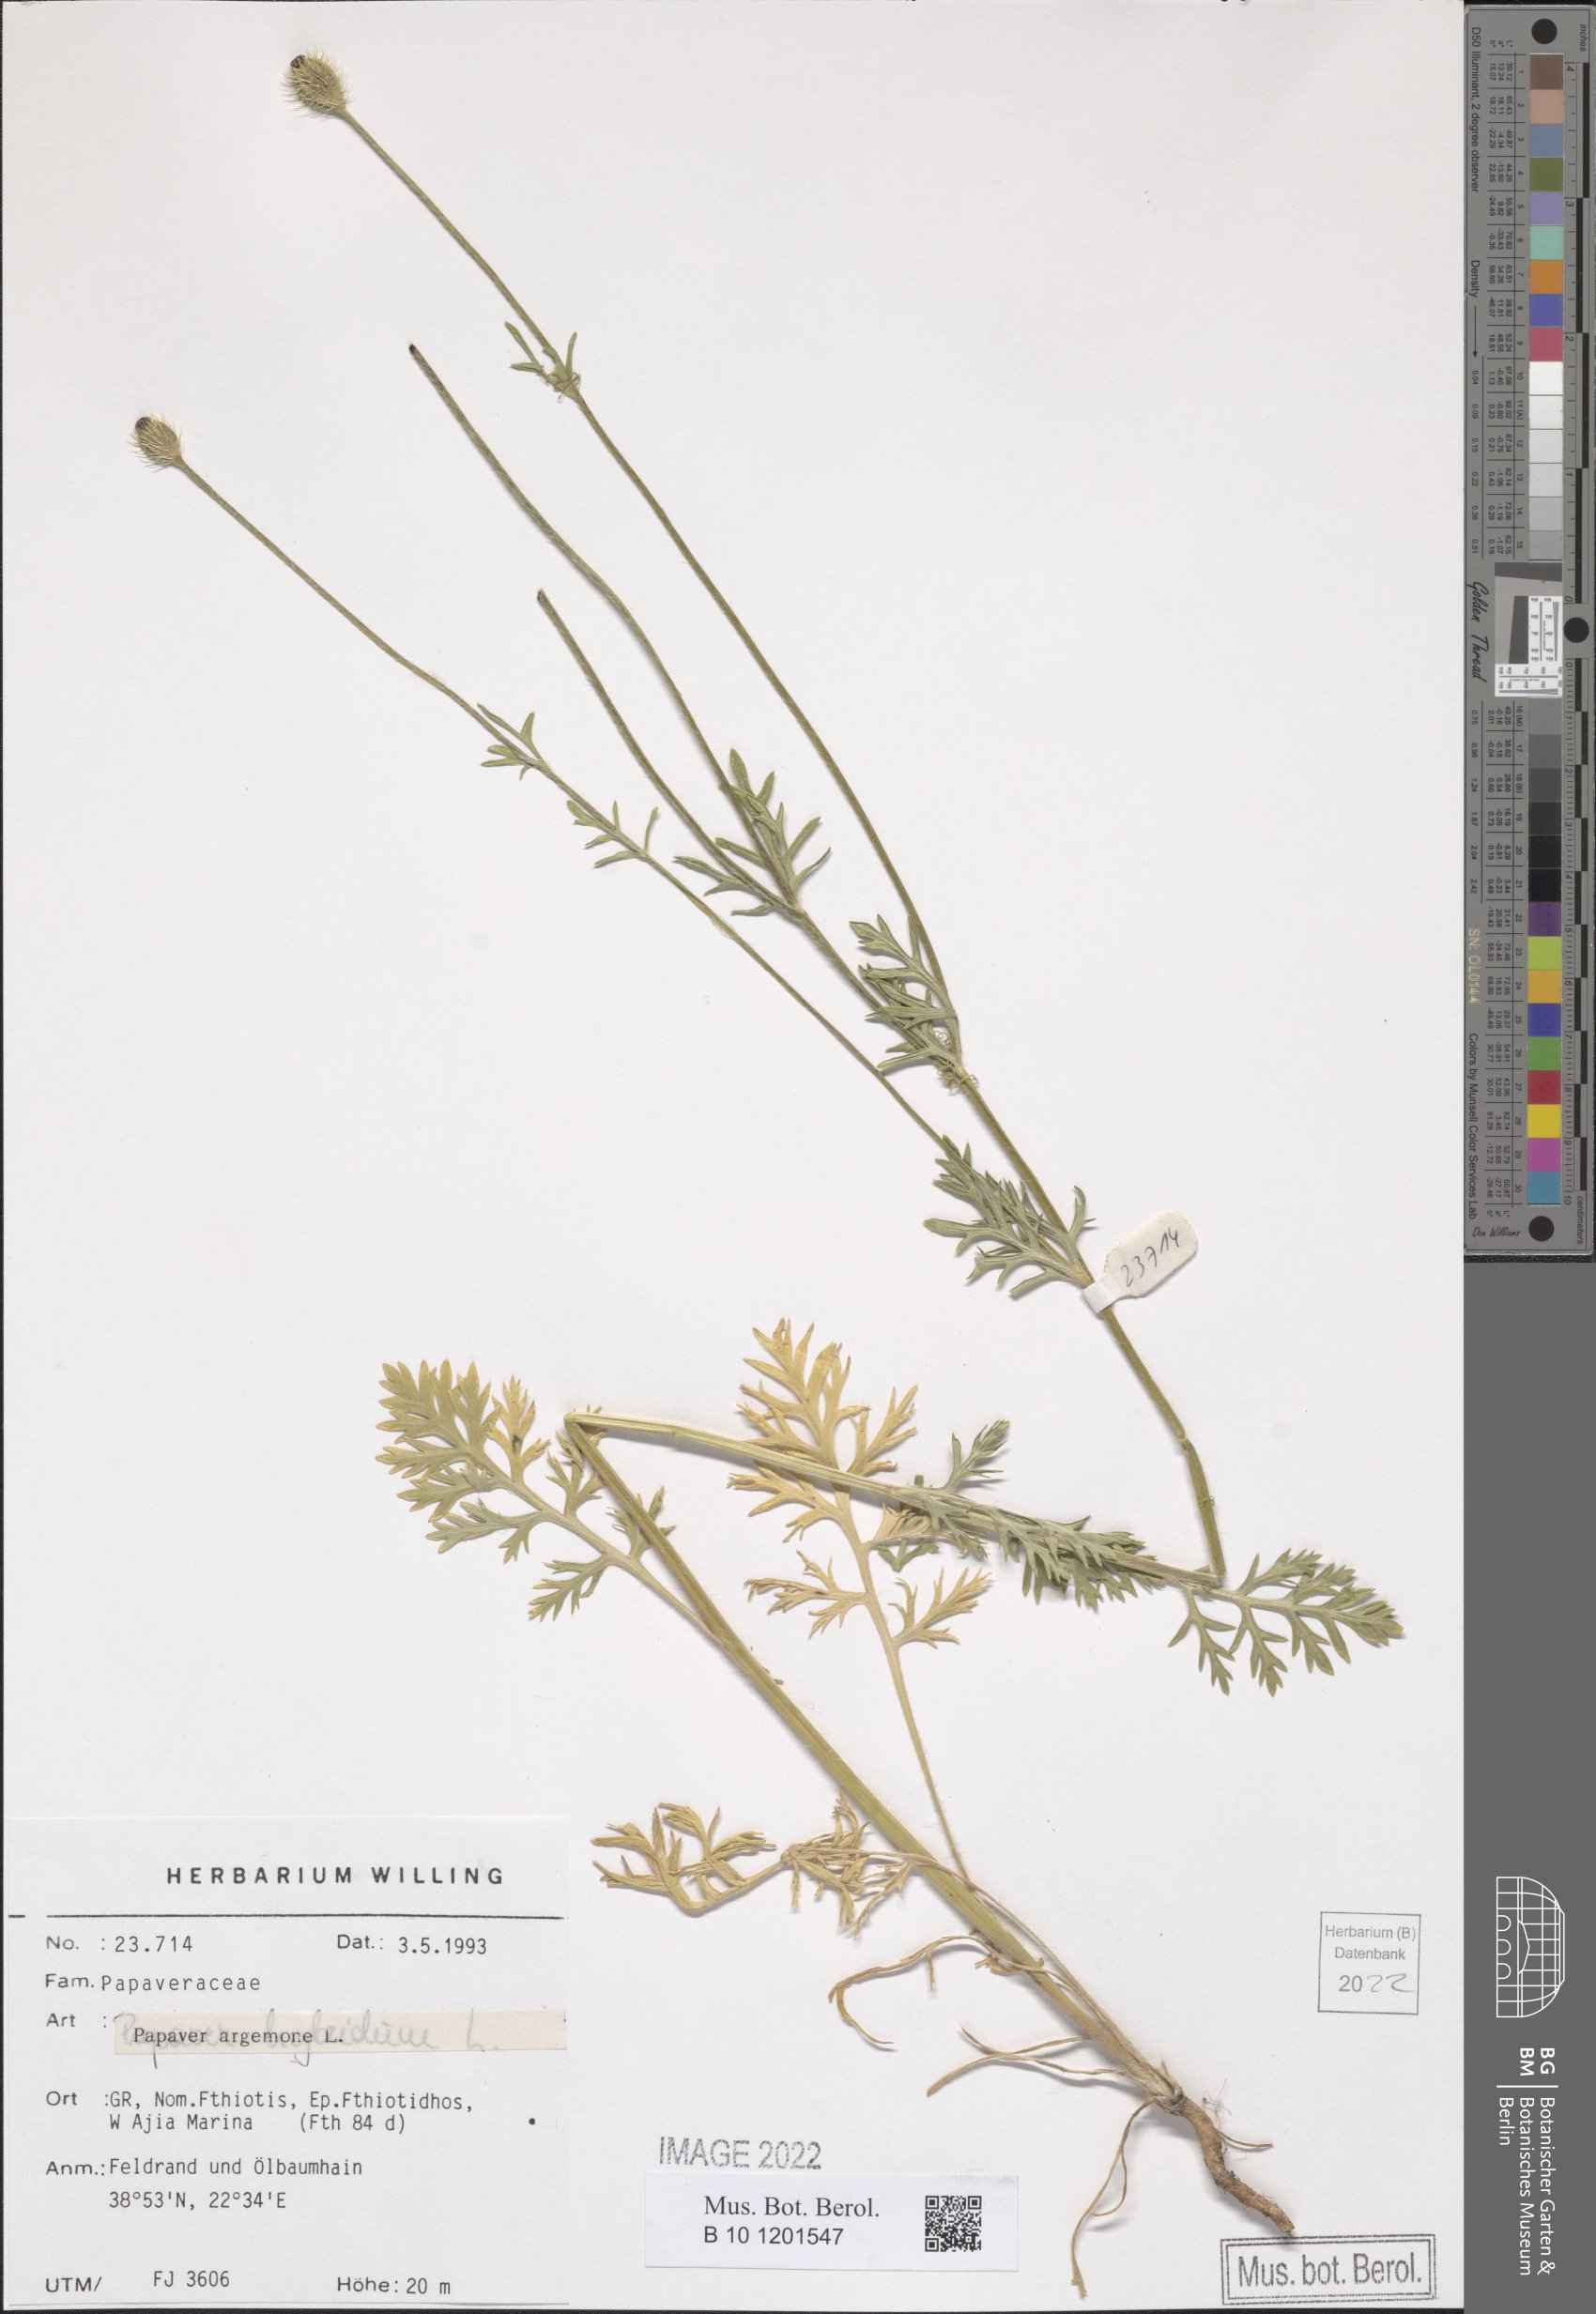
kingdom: Plantae
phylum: Tracheophyta
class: Magnoliopsida
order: Ranunculales
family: Papaveraceae
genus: Roemeria
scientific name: Roemeria argemone
